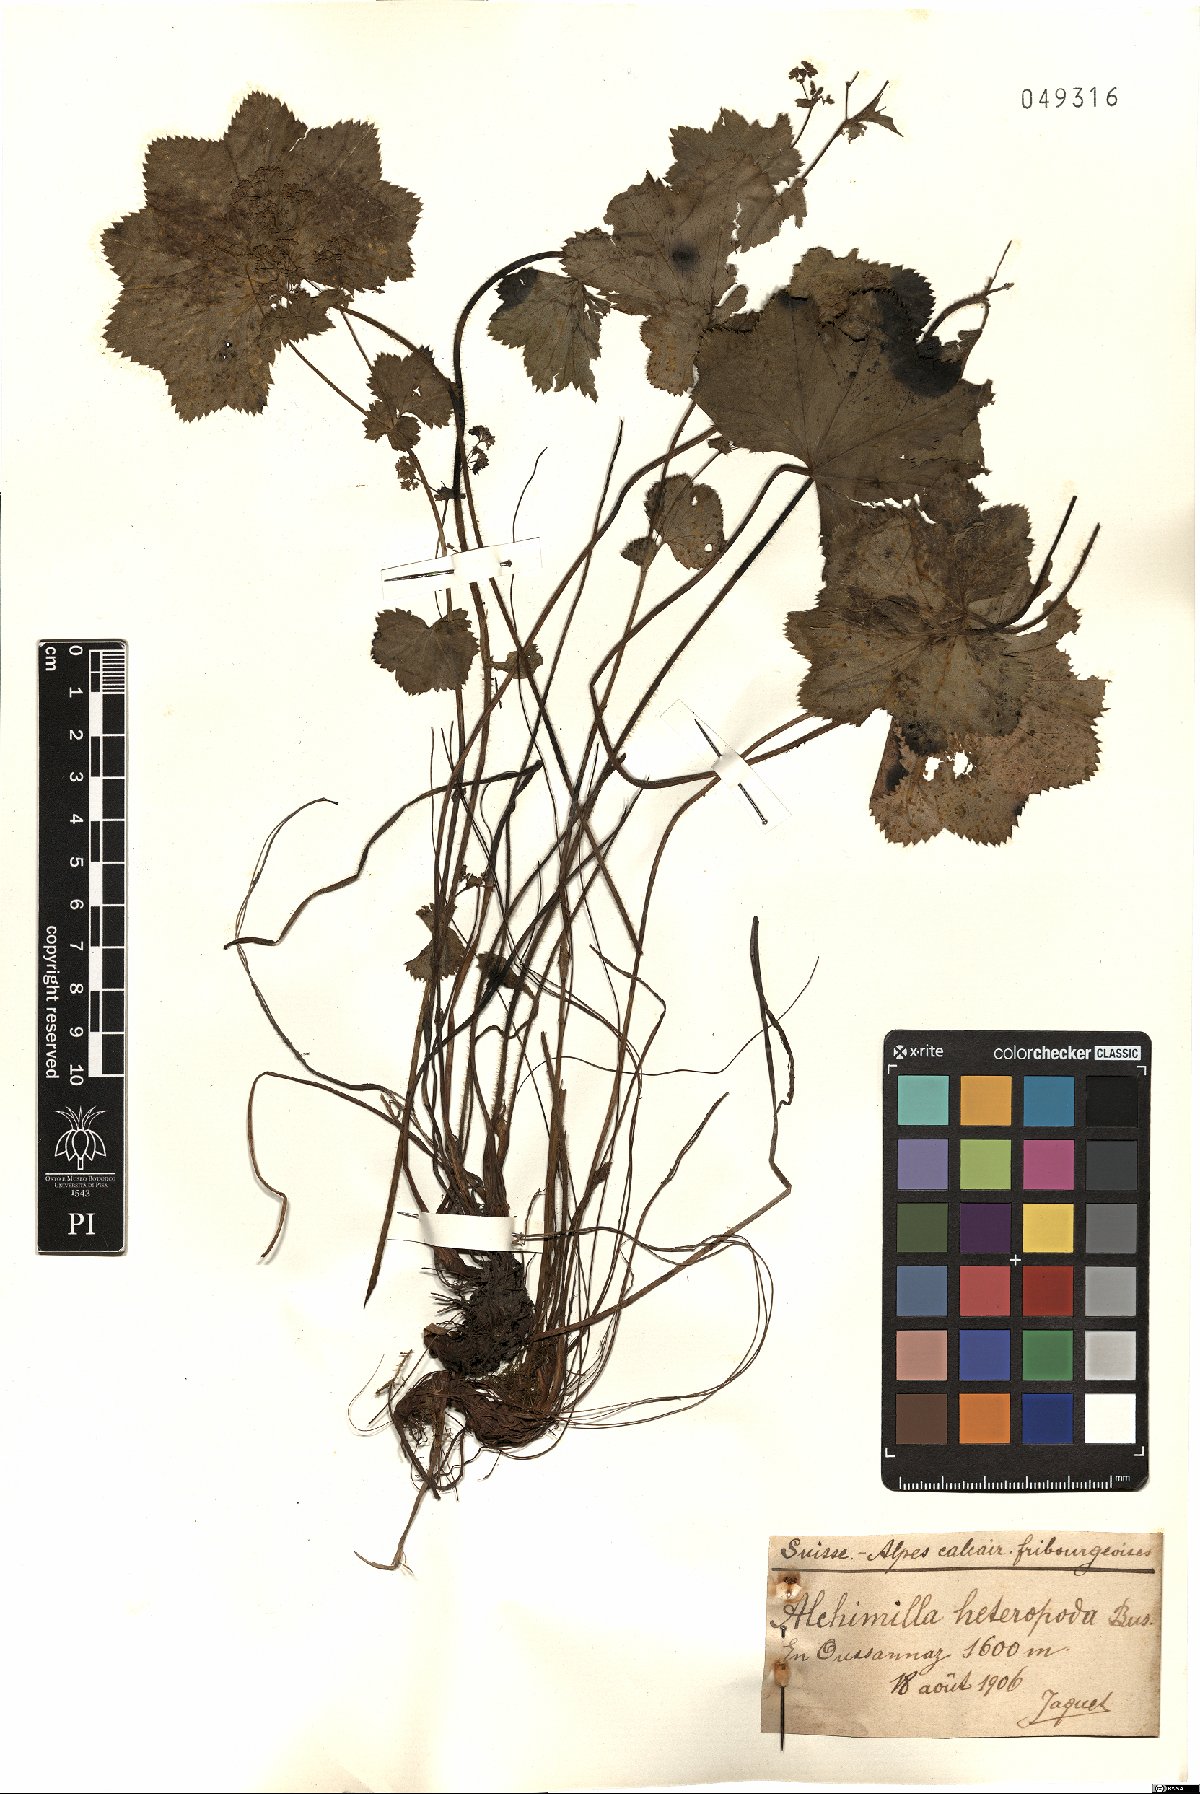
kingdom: Plantae
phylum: Tracheophyta
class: Magnoliopsida
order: Rosales
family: Rosaceae
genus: Alchemilla
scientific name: Alchemilla heteropoda
